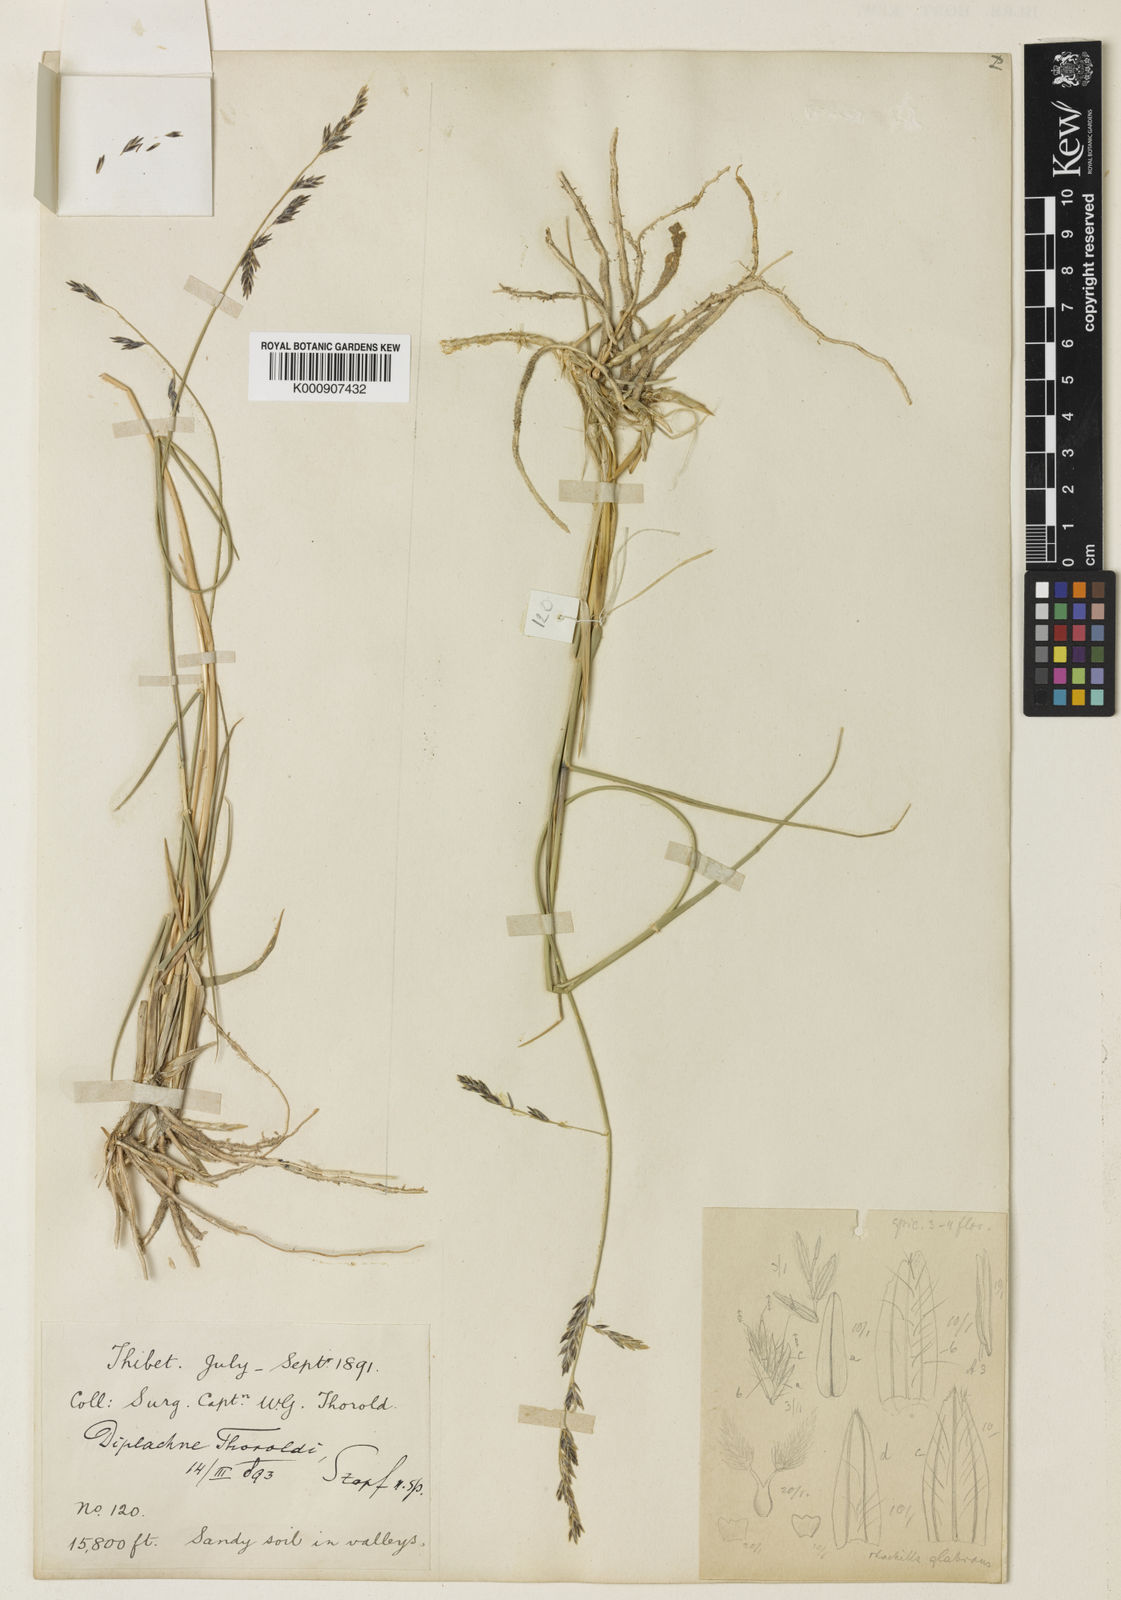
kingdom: Plantae
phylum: Tracheophyta
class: Liliopsida
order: Poales
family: Poaceae
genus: Orinus
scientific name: Orinus thoroldii
